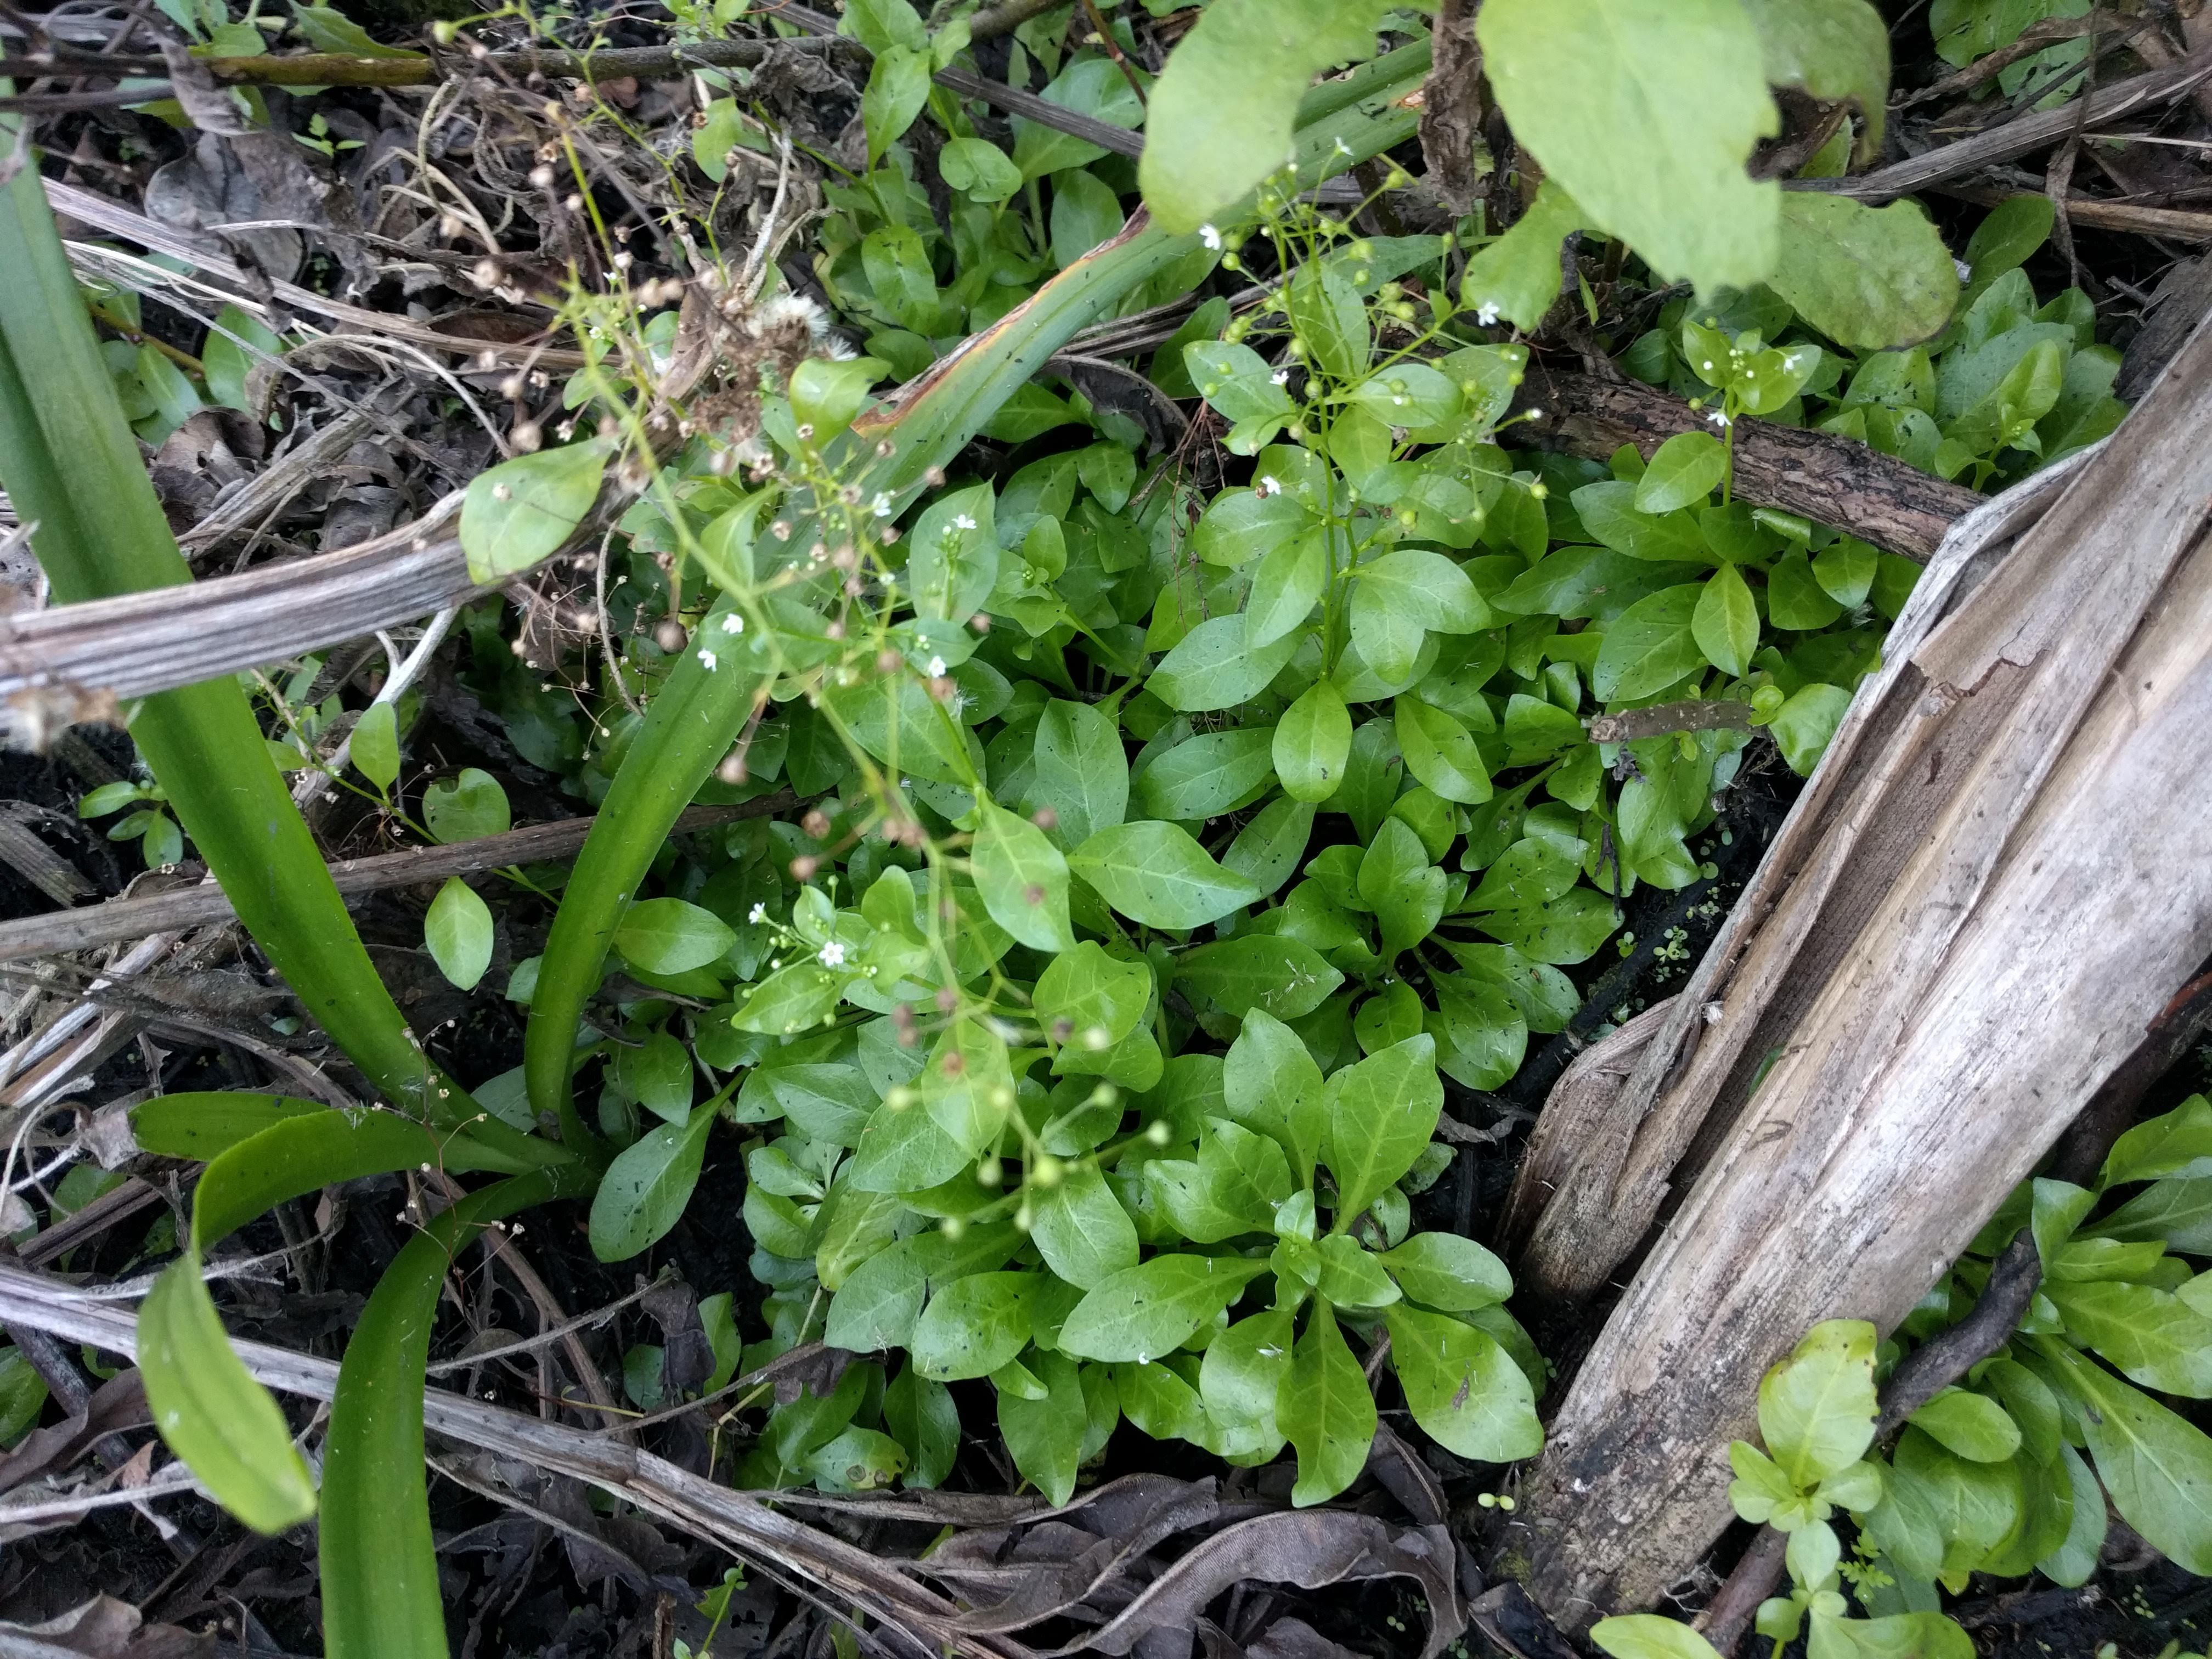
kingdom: Plantae
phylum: Tracheophyta
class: Magnoliopsida
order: Ericales
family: Primulaceae
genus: Samolus
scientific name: Samolus parviflorus
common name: False water pimpernel
